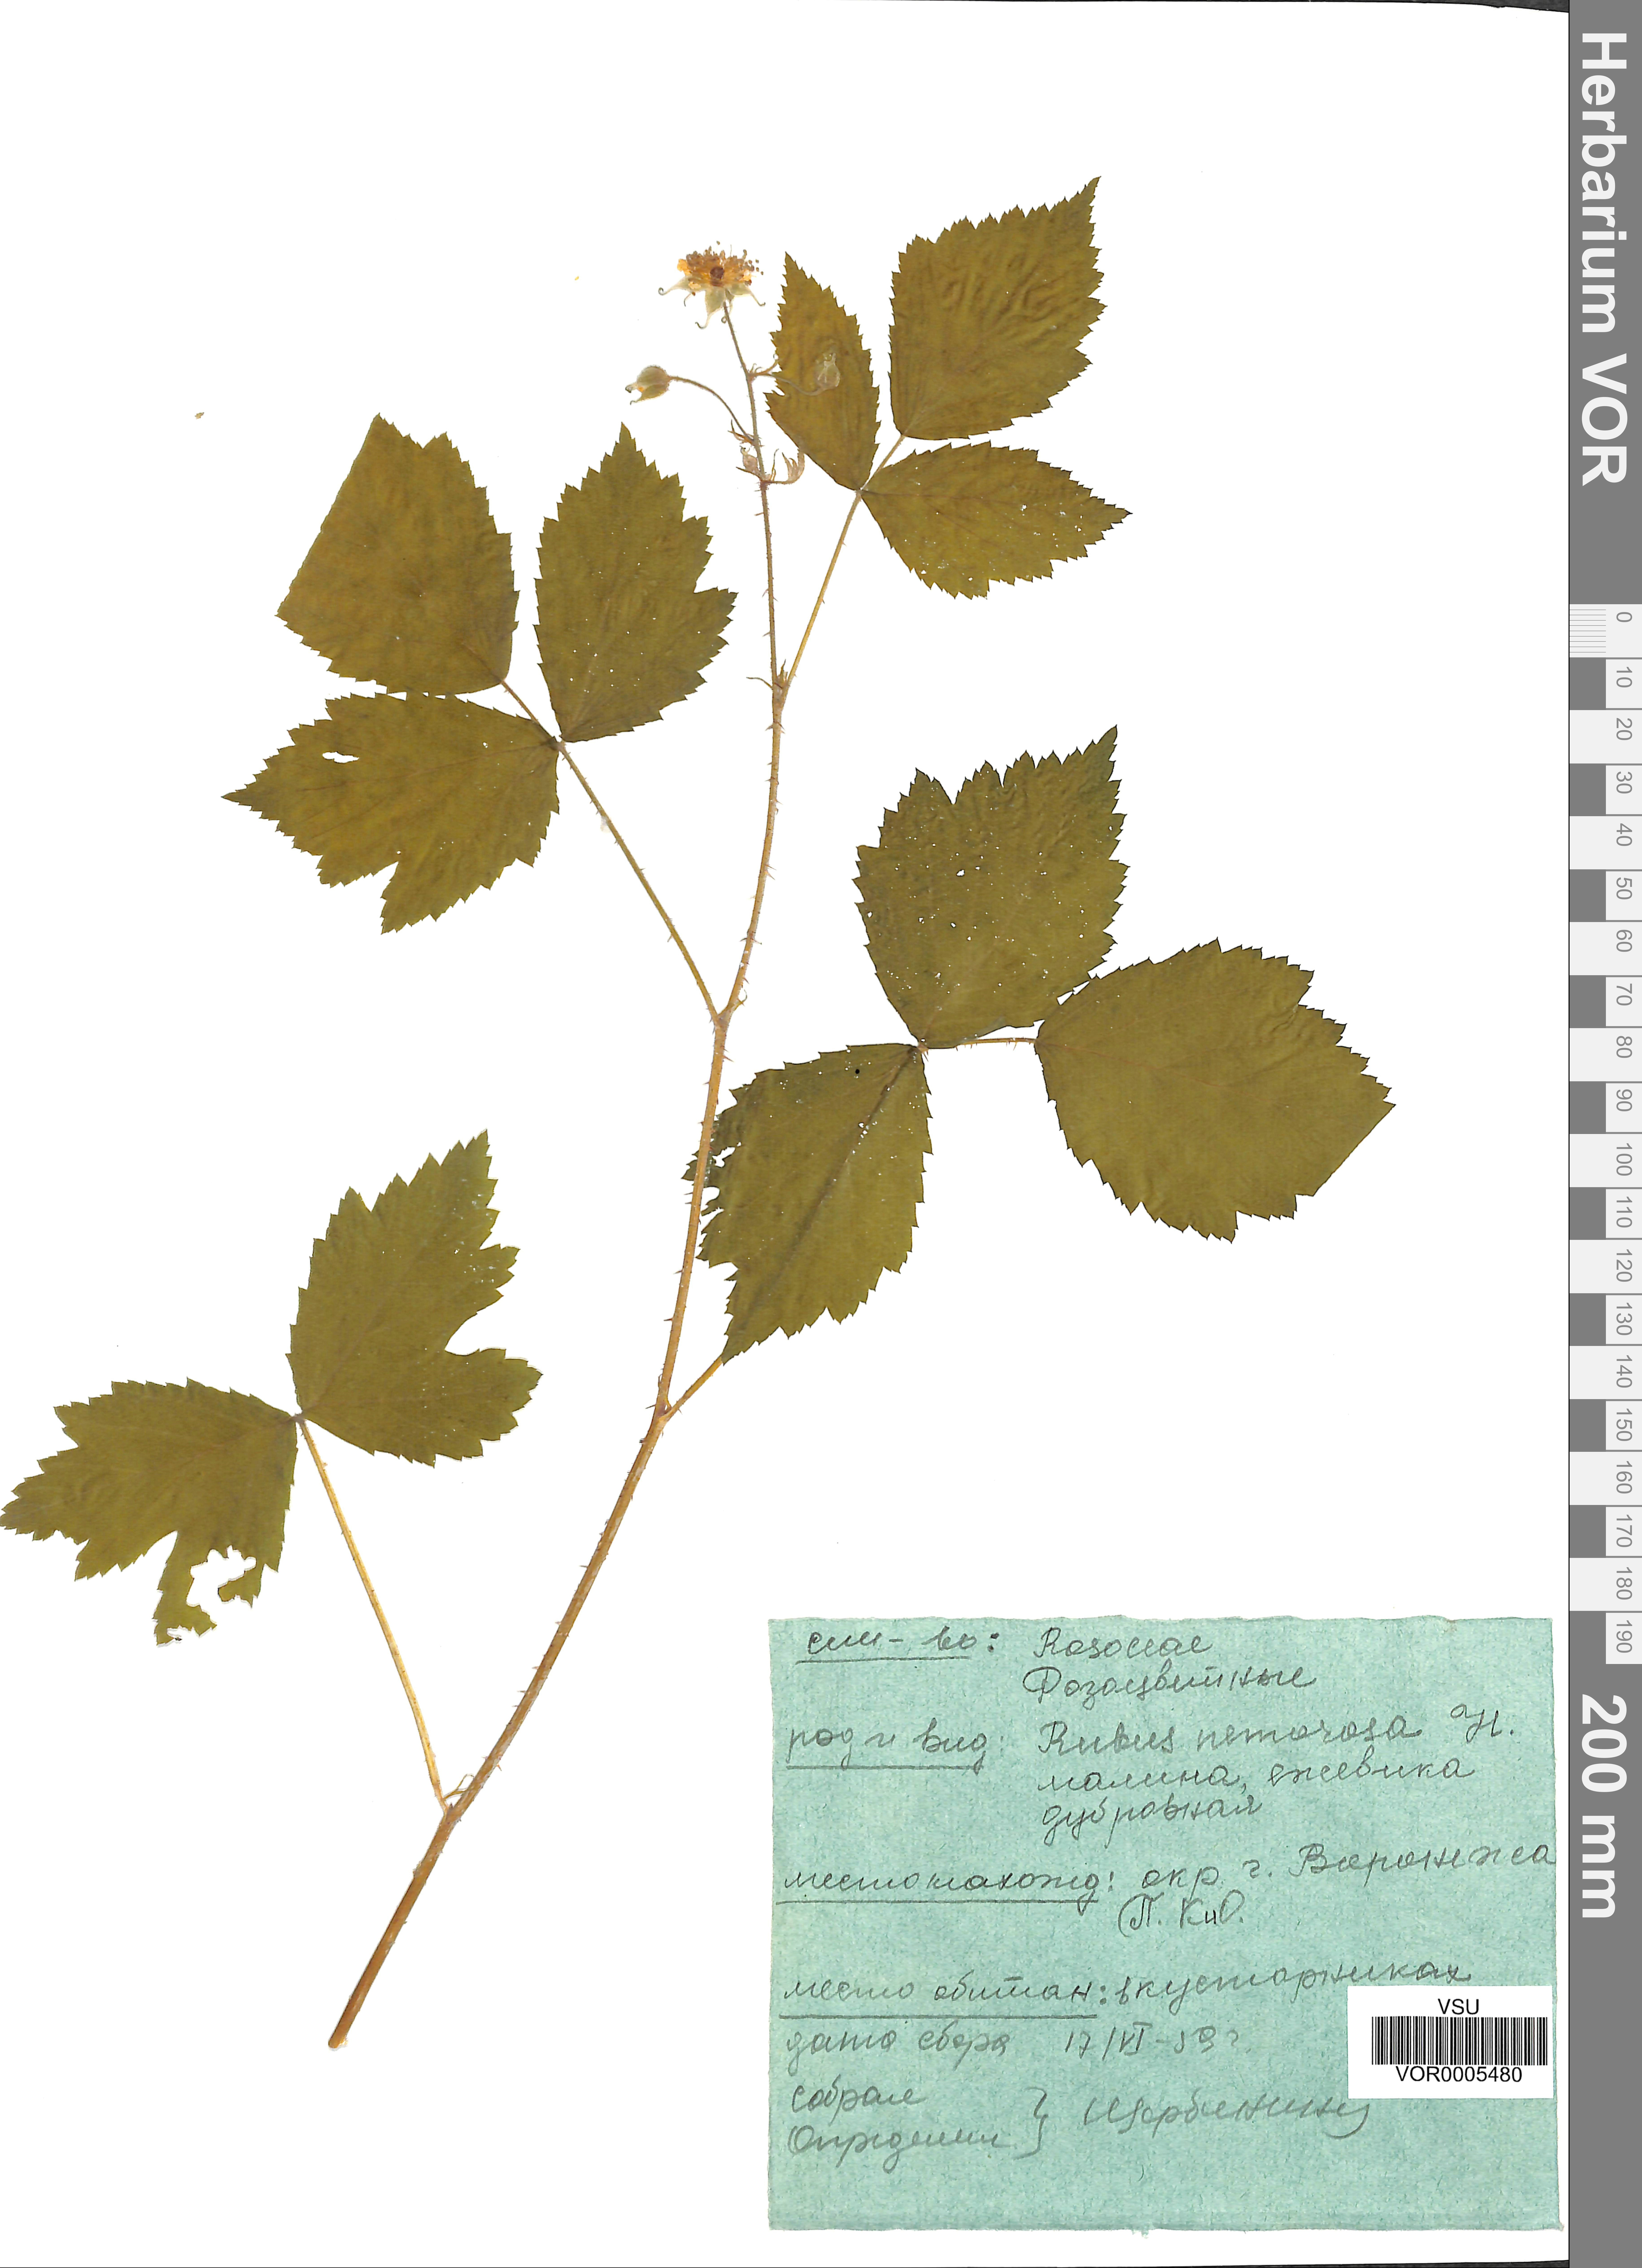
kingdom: Plantae
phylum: Tracheophyta
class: Magnoliopsida
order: Rosales
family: Rosaceae
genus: Rubus
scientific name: Rubus polonicus
